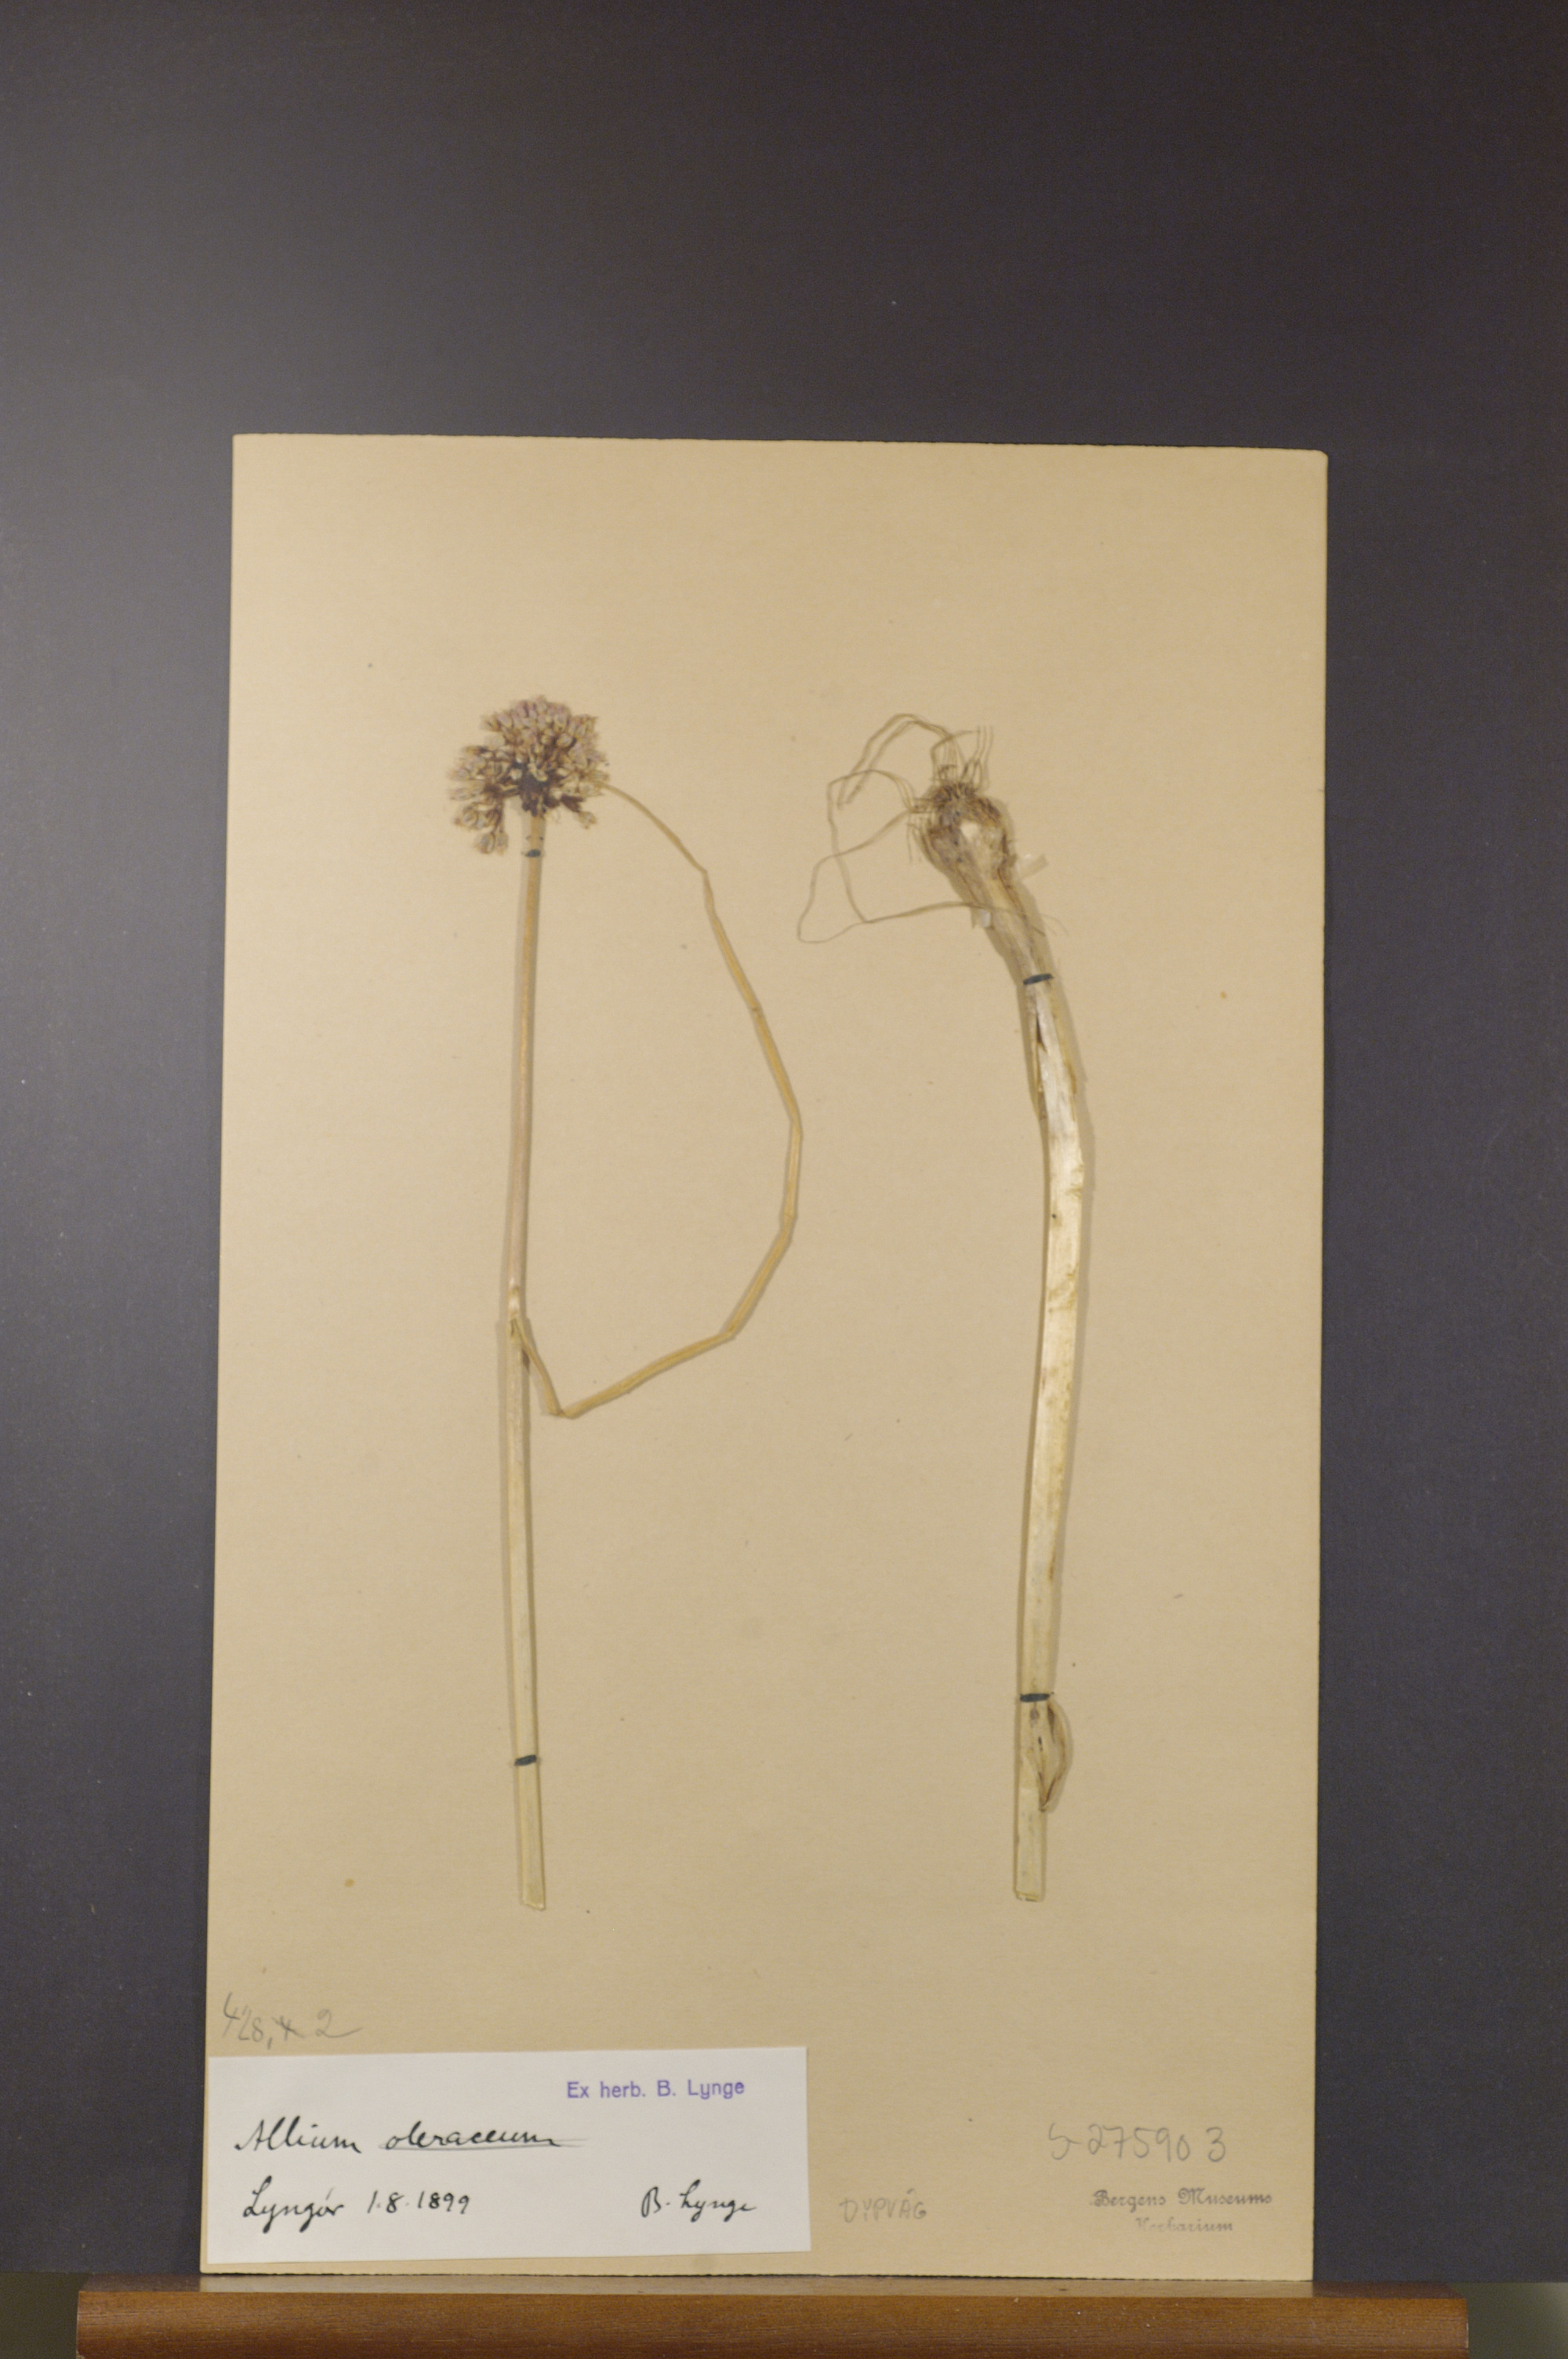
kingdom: Plantae
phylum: Tracheophyta
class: Liliopsida
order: Asparagales
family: Amaryllidaceae
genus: Allium
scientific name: Allium oleraceum
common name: Field garlic
